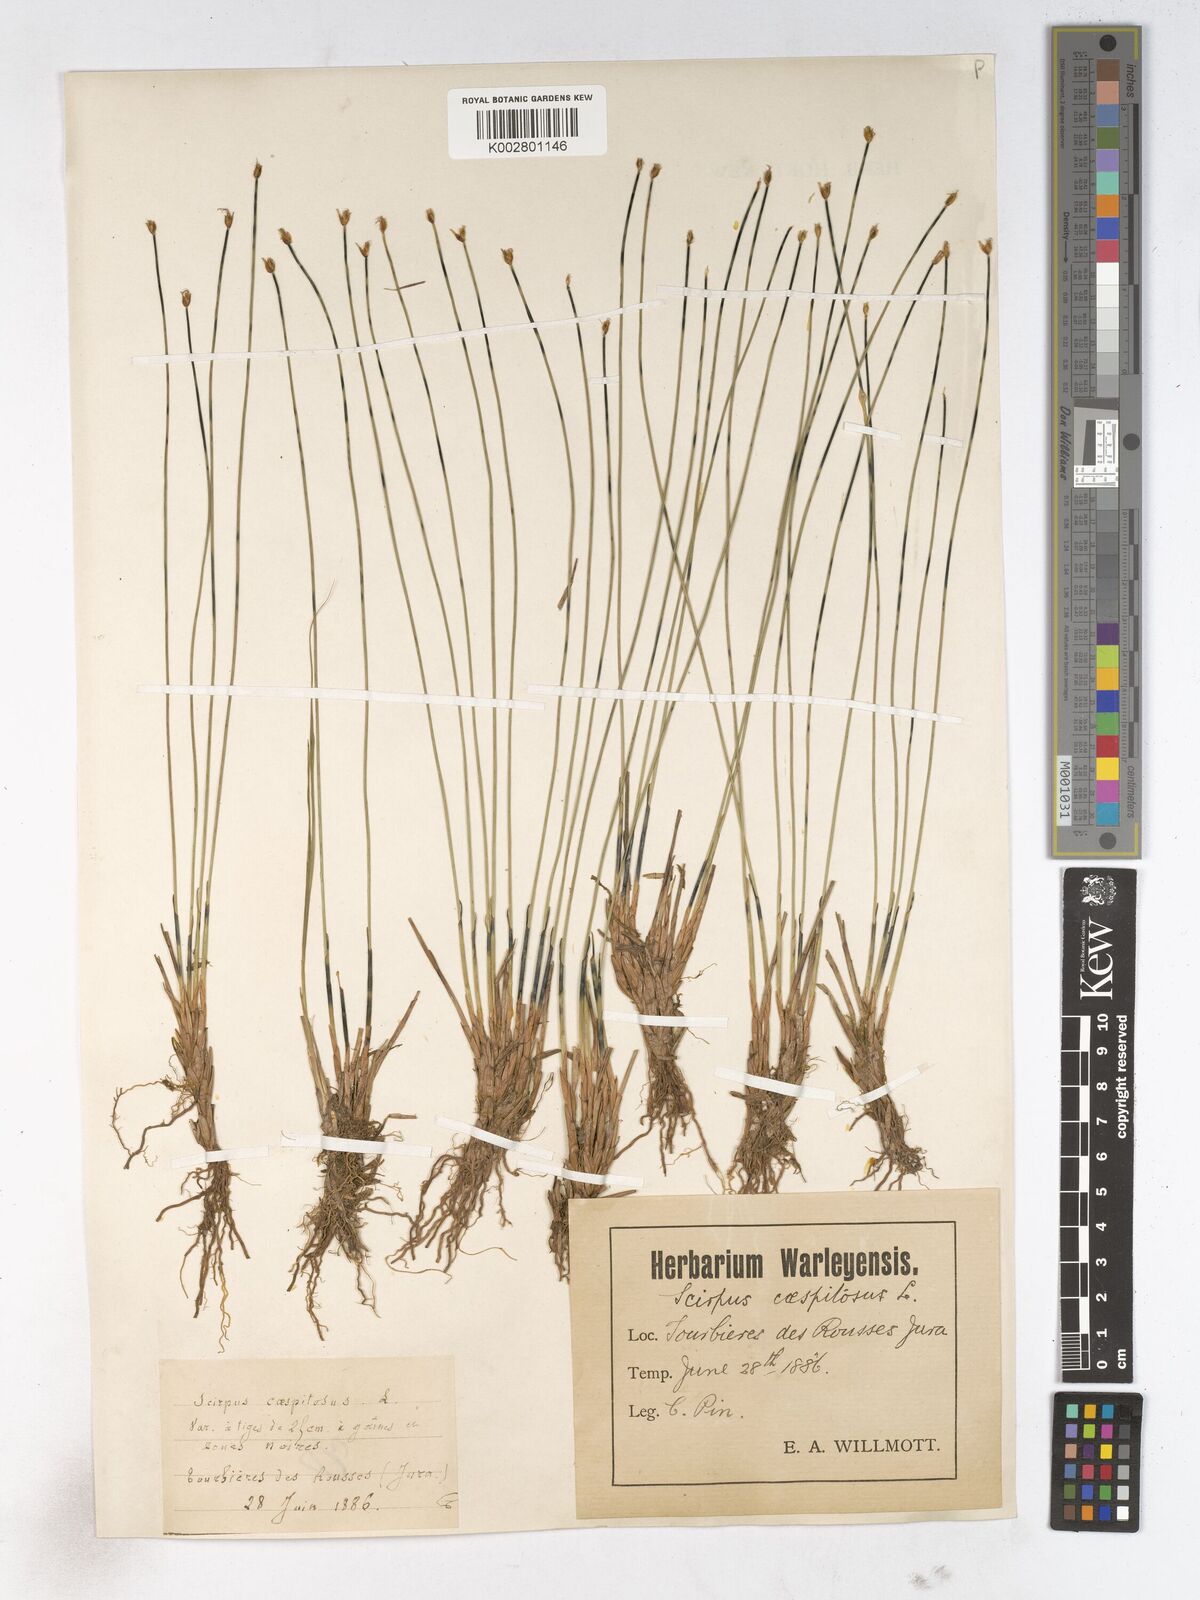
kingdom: Plantae
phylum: Tracheophyta
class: Liliopsida
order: Poales
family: Cyperaceae
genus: Trichophorum
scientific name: Trichophorum cespitosum
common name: Cespitose bulrush
